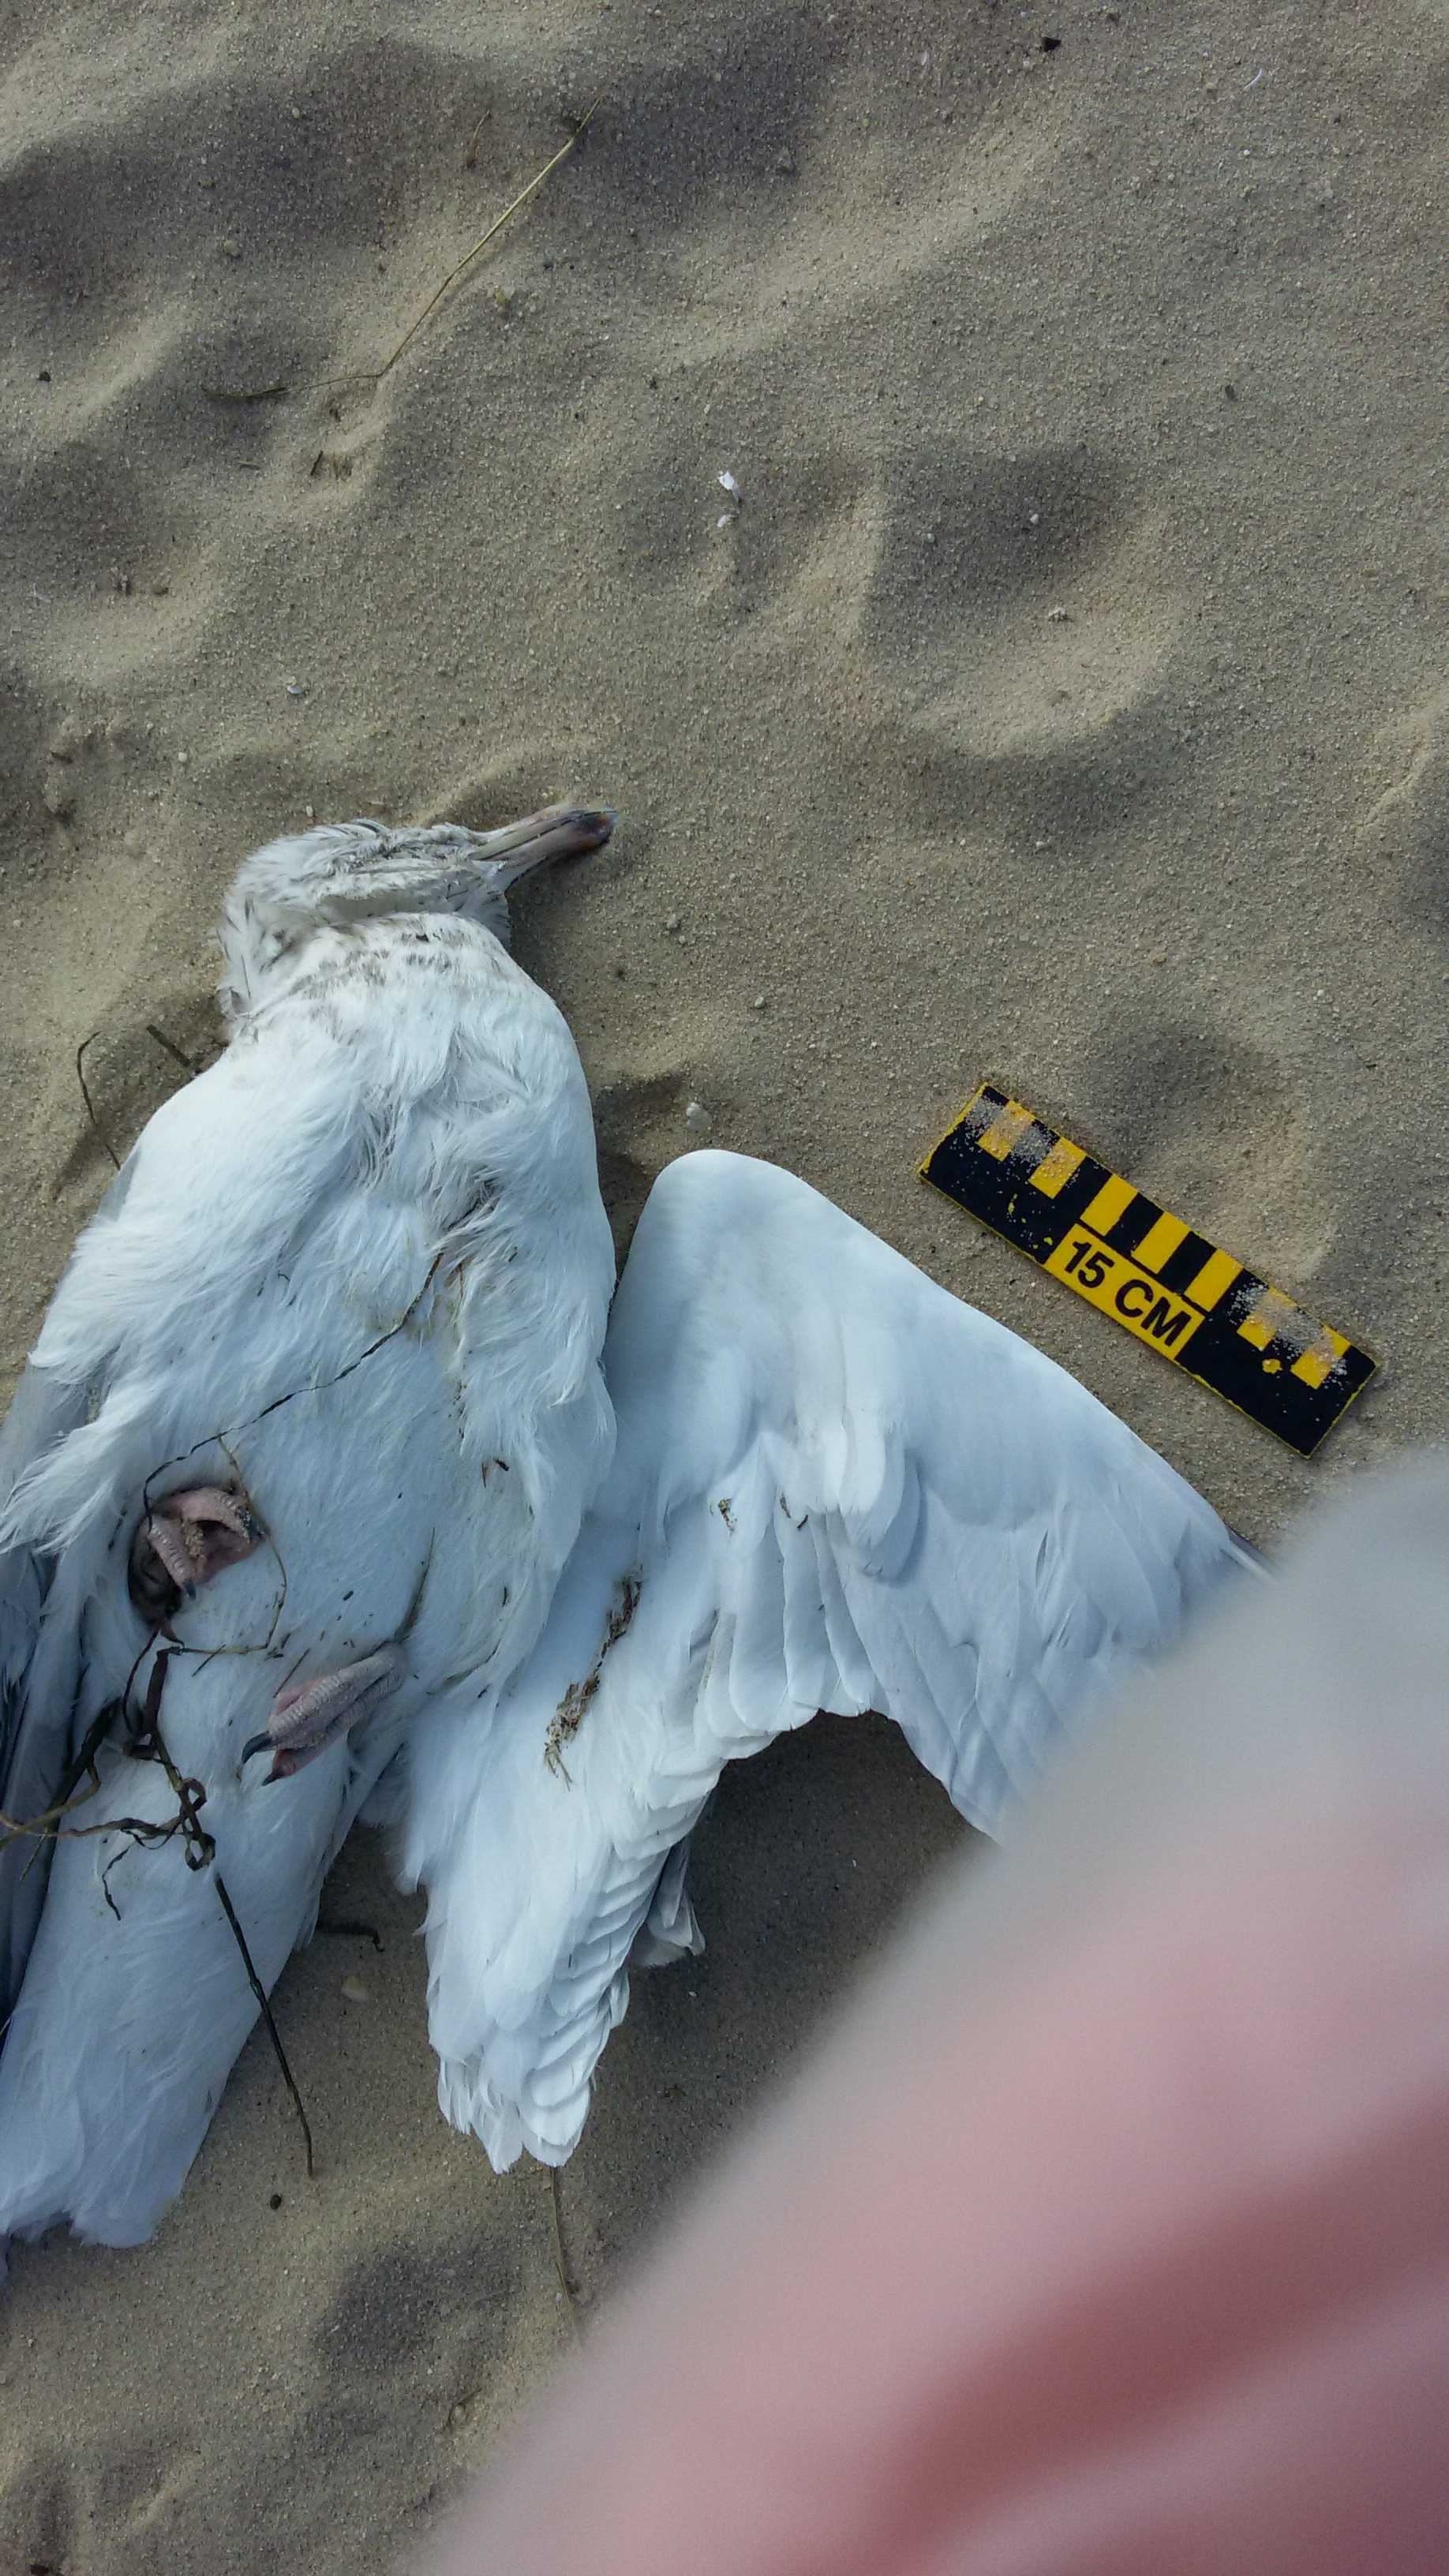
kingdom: Animalia
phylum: Chordata
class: Aves
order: Charadriiformes
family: Laridae
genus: Larus
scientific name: Larus delawarensis
